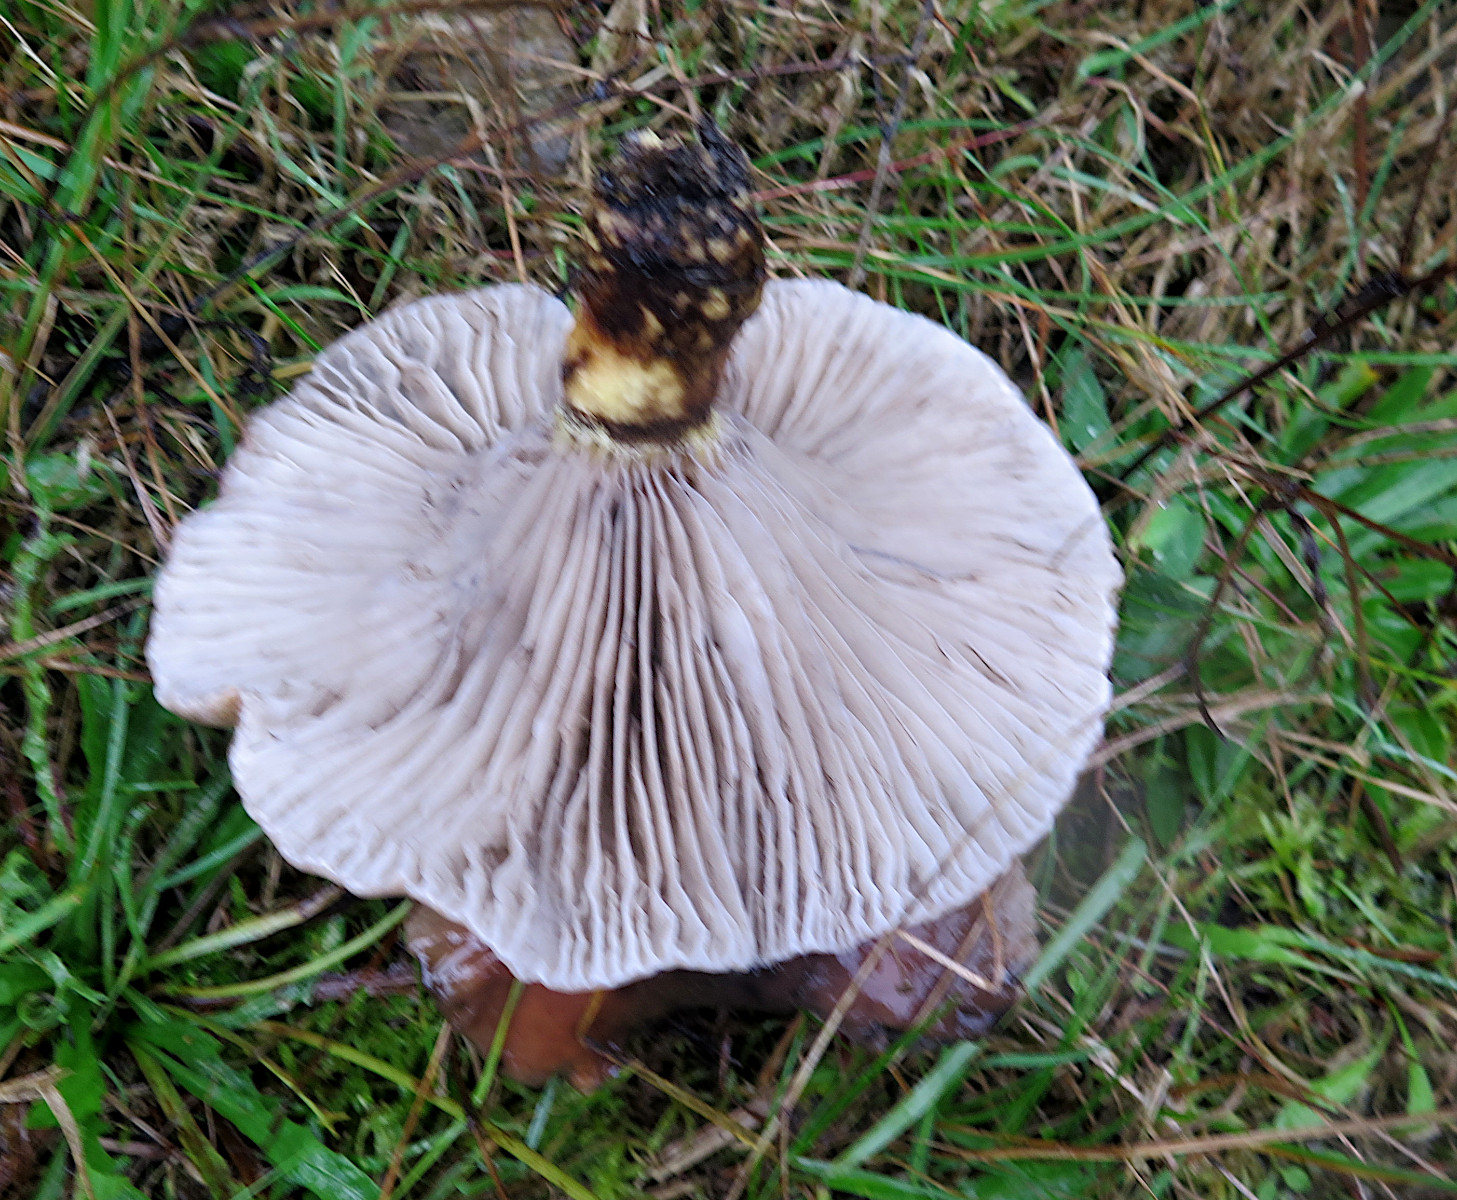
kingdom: Fungi
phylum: Basidiomycota
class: Agaricomycetes
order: Boletales
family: Gomphidiaceae
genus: Gomphidius
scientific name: Gomphidius glutinosus
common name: grå slimslør
